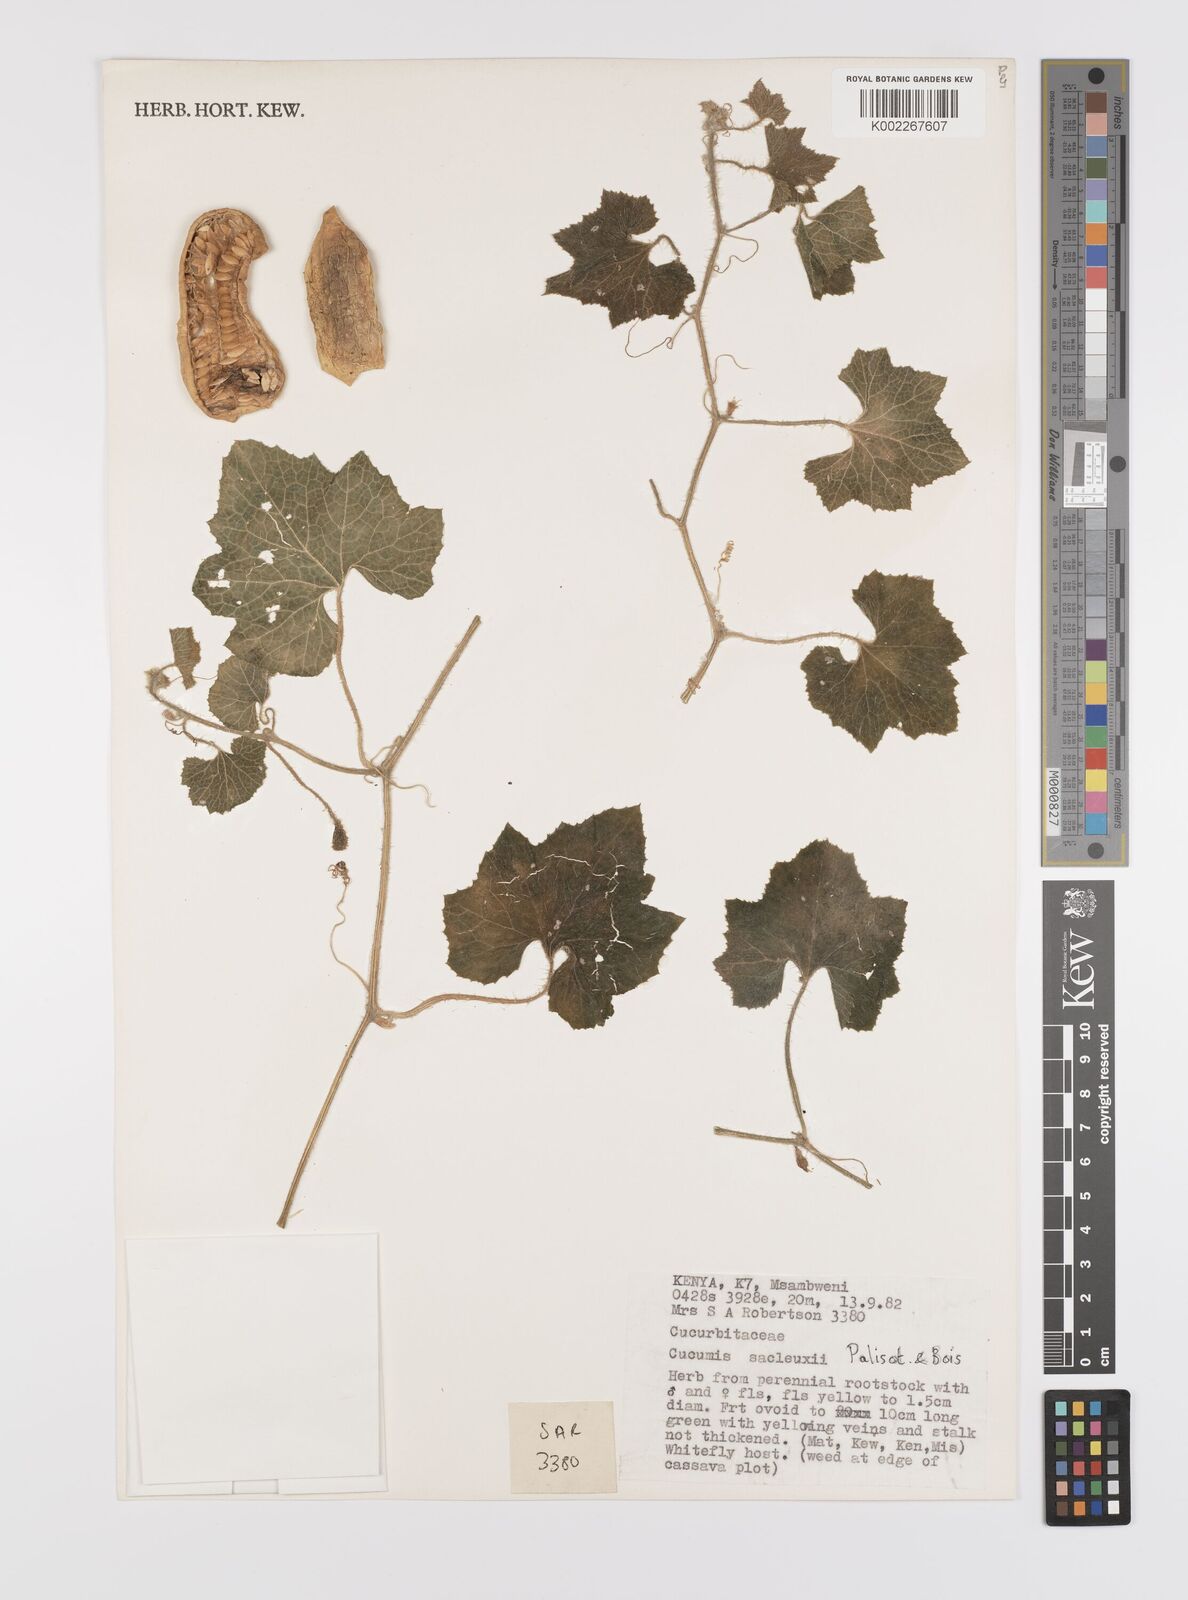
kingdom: Plantae
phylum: Tracheophyta
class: Magnoliopsida
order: Cucurbitales
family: Cucurbitaceae
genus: Cucumis
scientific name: Cucumis sacleuxii
